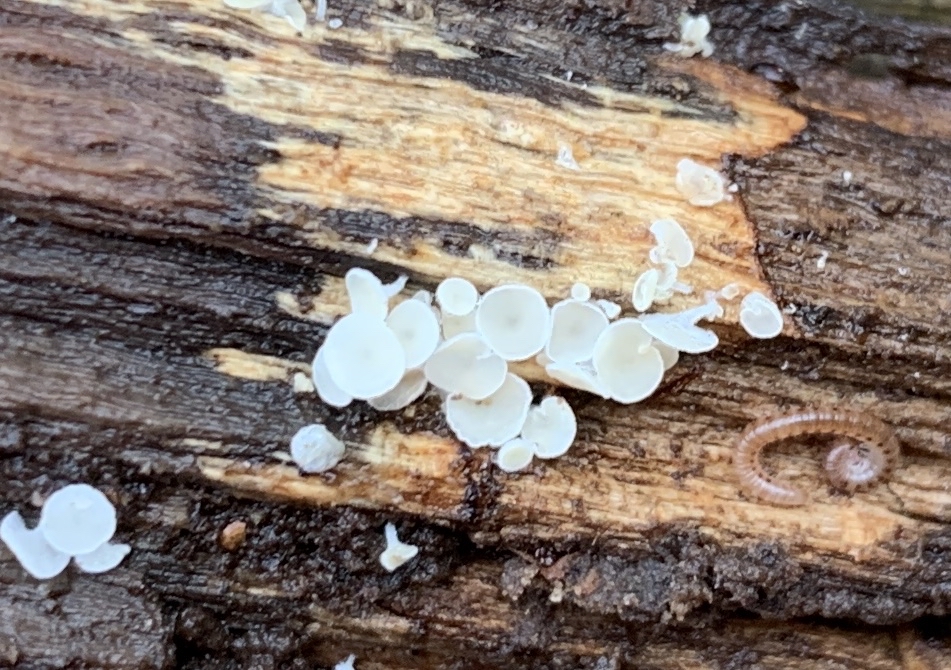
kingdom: Fungi
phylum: Ascomycota
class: Leotiomycetes
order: Helotiales
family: Lachnaceae
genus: Lachnum
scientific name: Lachnum
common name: frynseskive
